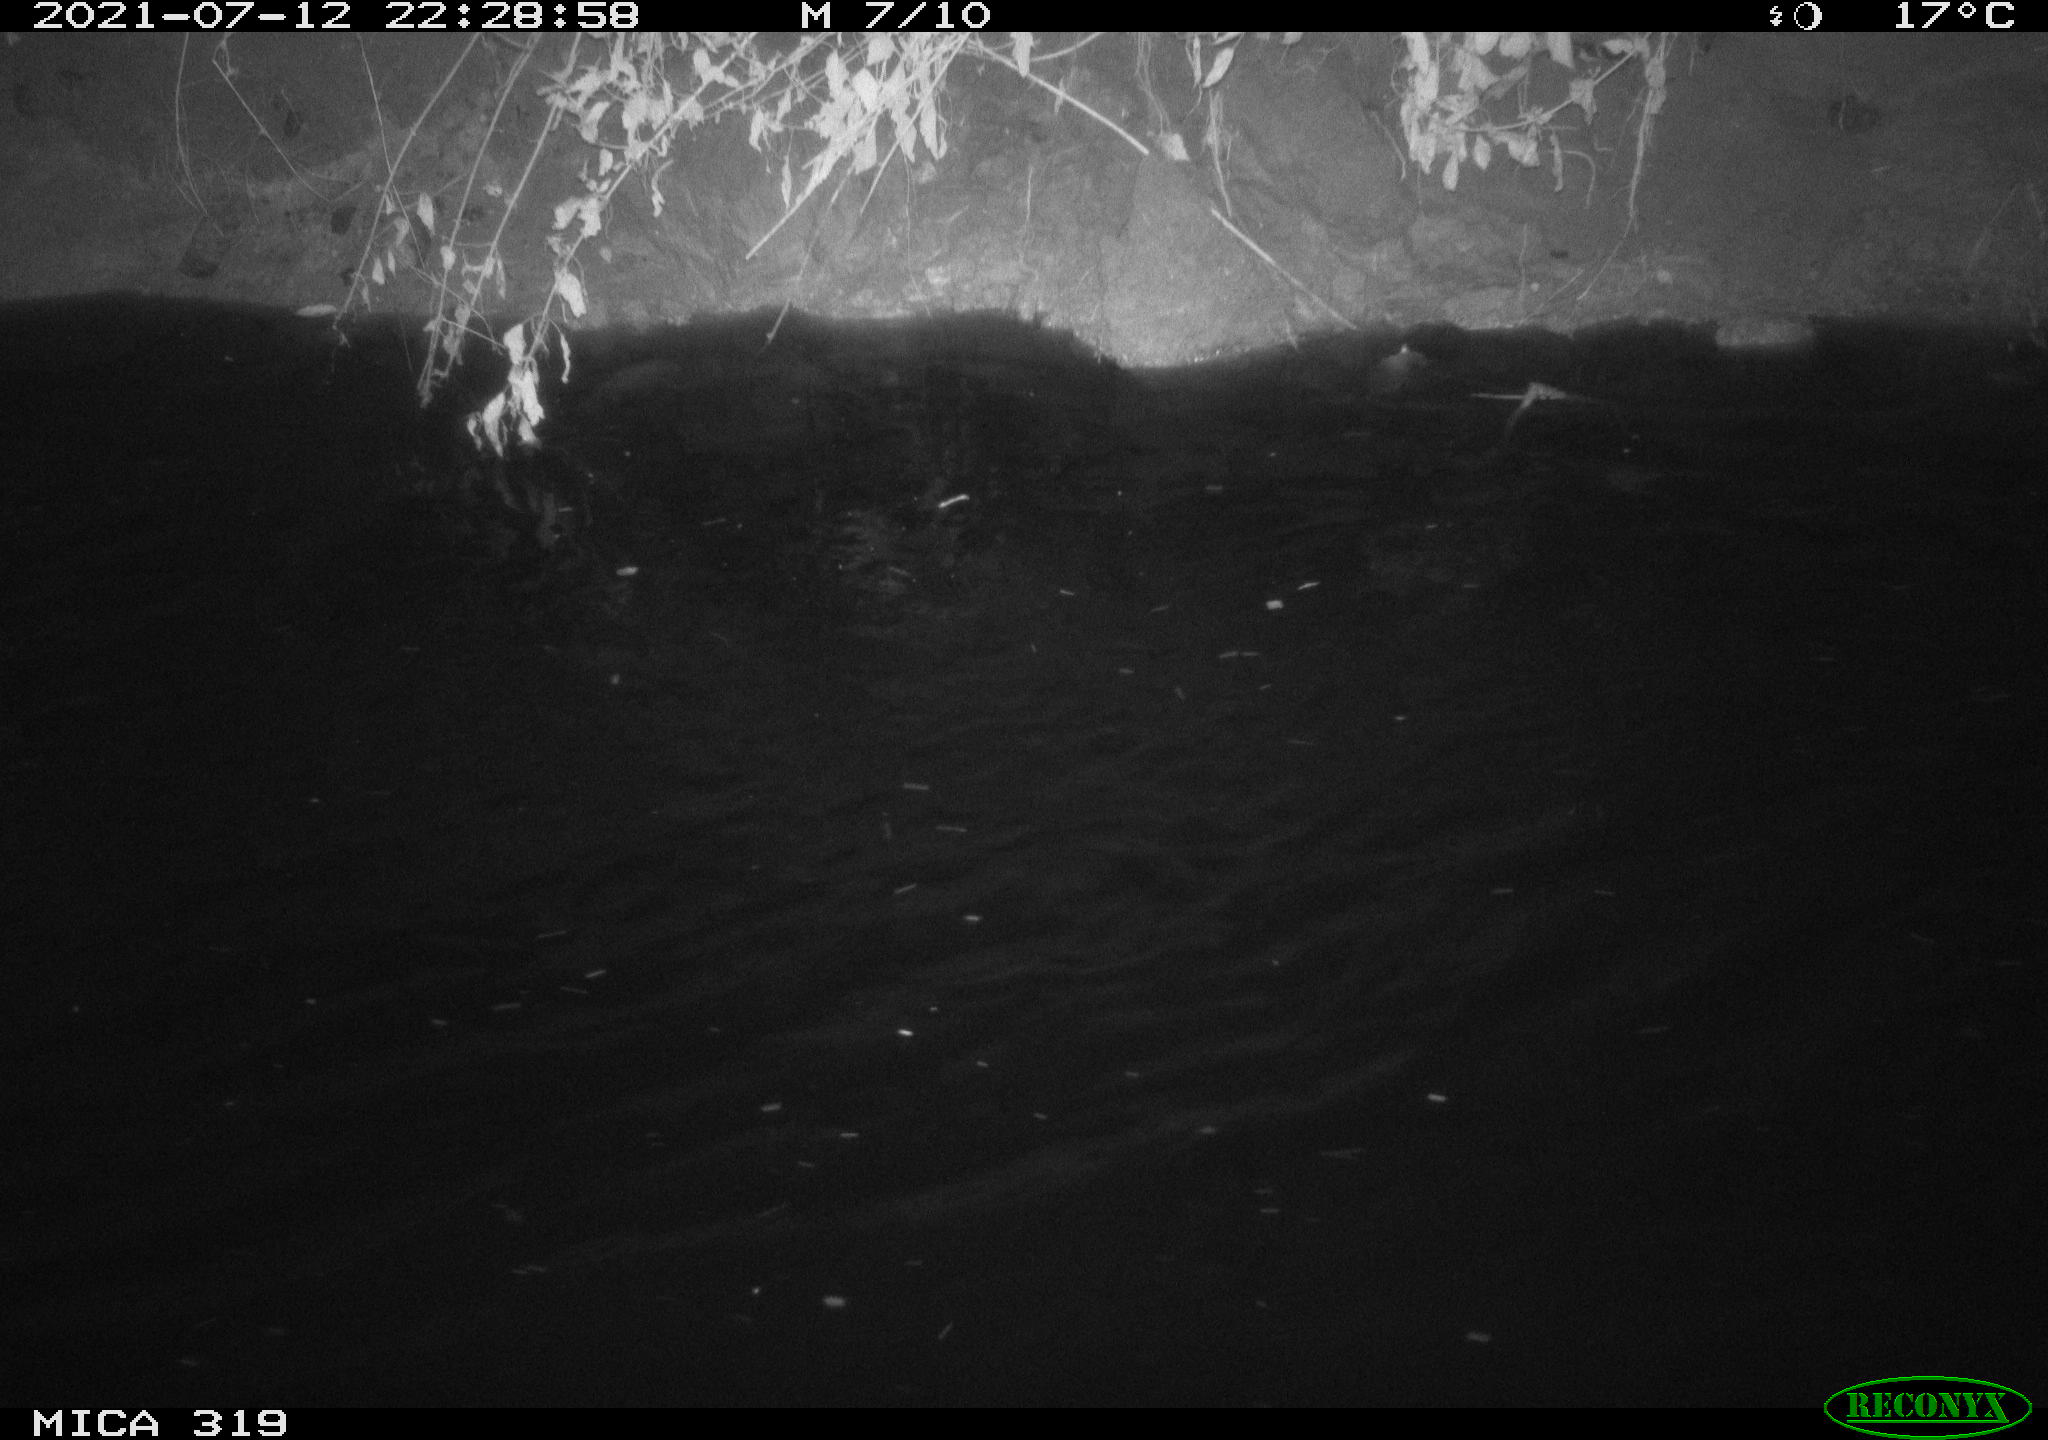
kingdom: Animalia
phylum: Chordata
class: Aves
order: Anseriformes
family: Anatidae
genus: Anas
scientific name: Anas platyrhynchos
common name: Mallard
